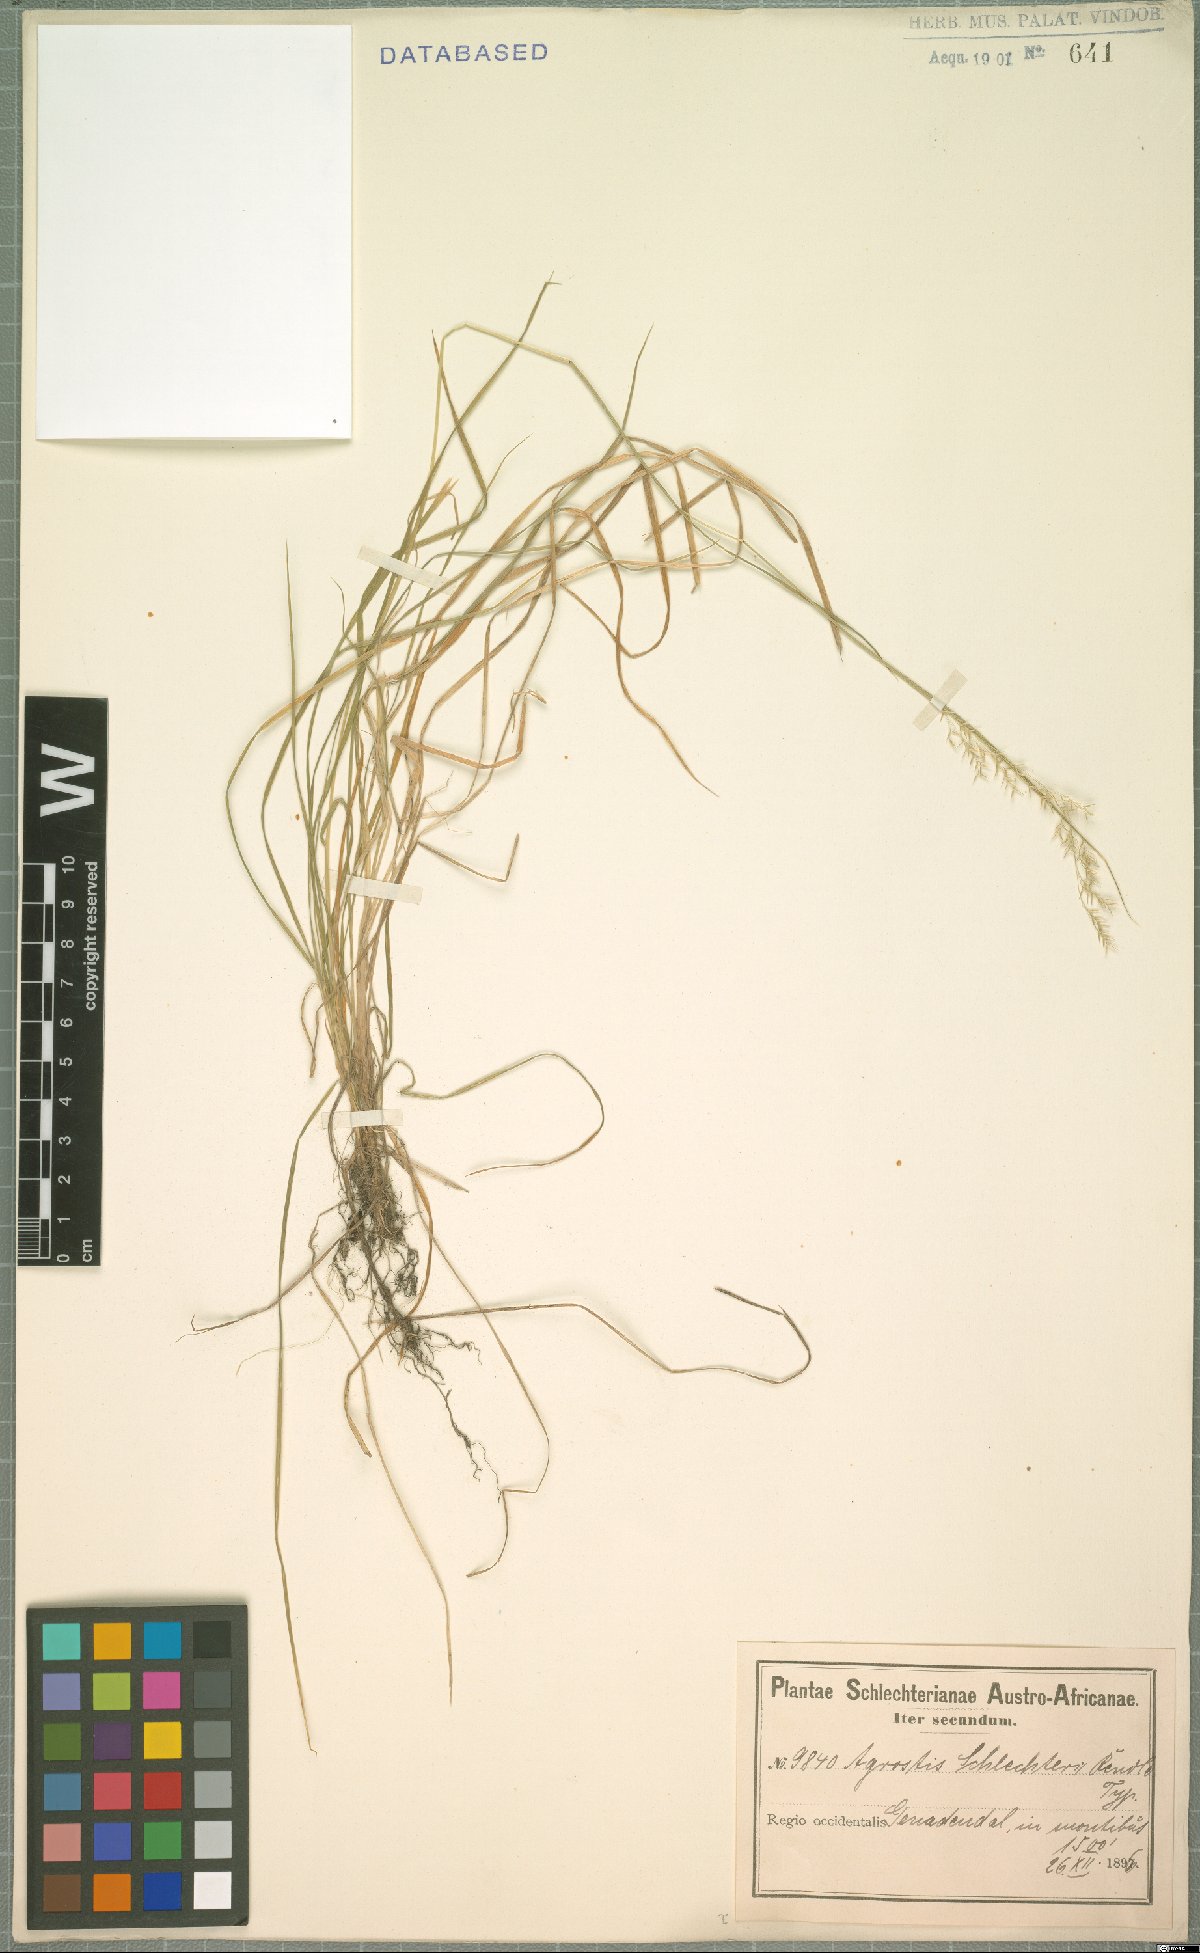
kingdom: Plantae
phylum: Tracheophyta
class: Liliopsida
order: Poales
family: Poaceae
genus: Lachnagrostis
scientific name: Lachnagrostis schlechteri
